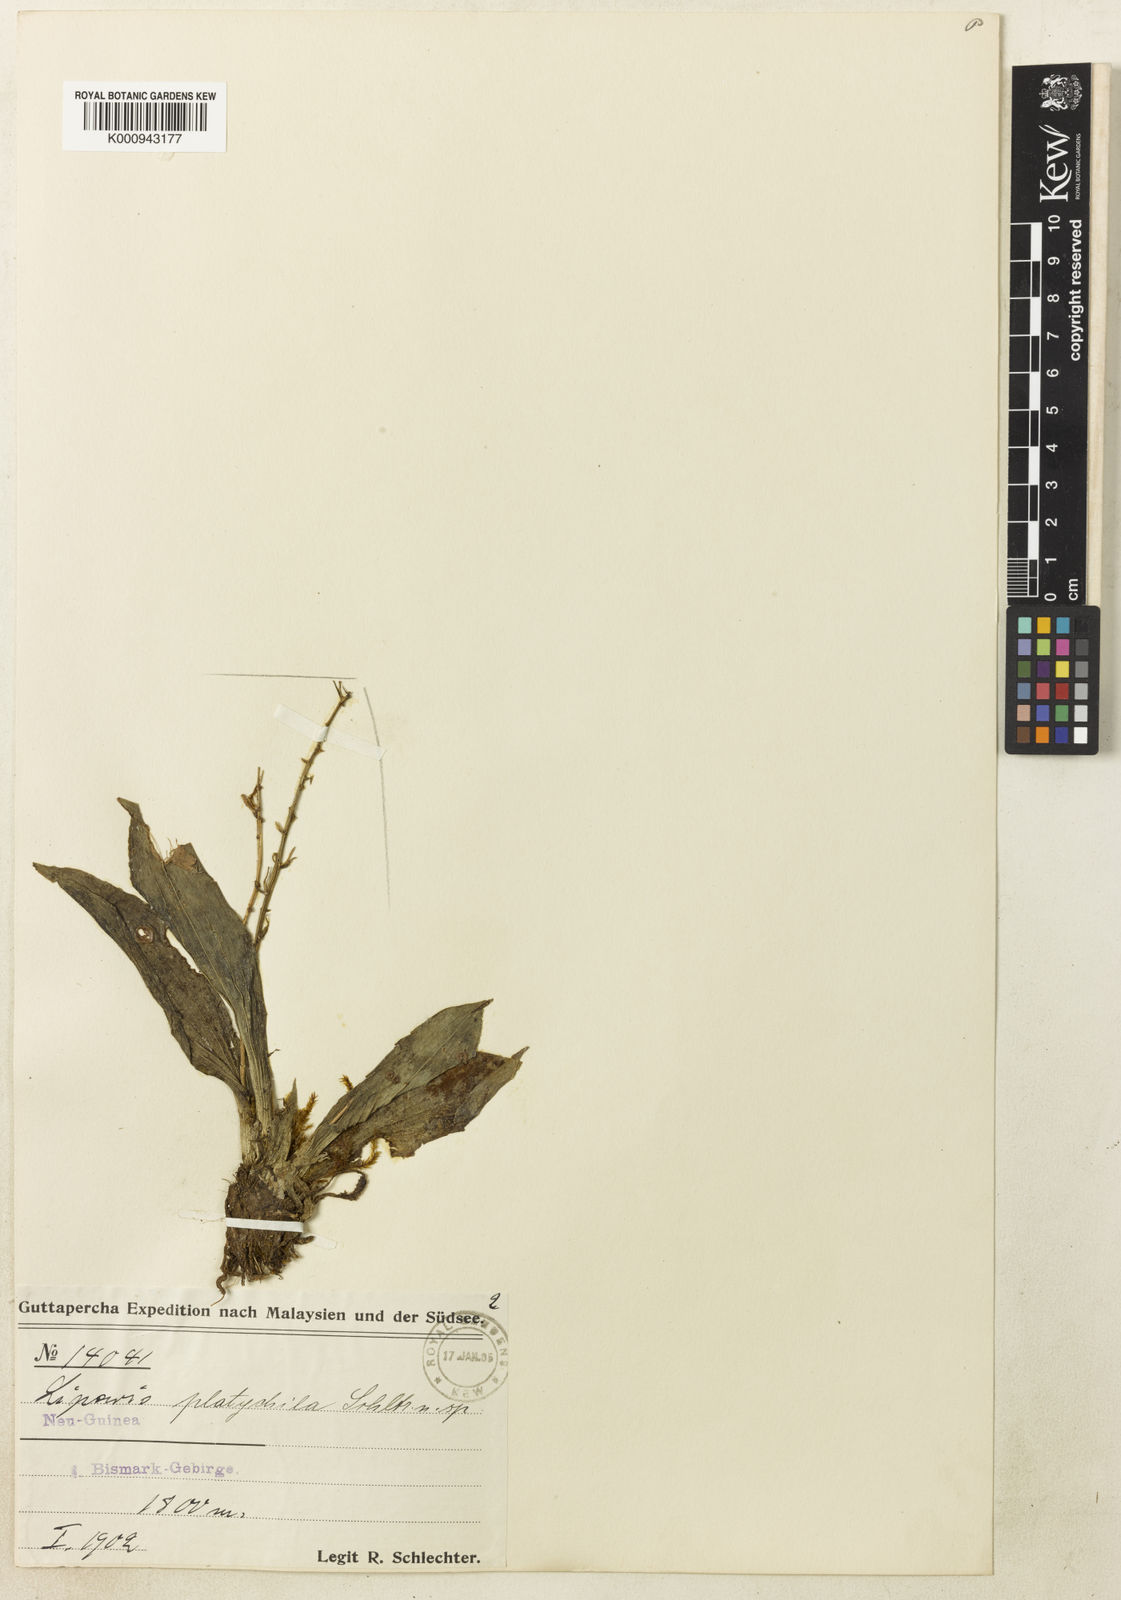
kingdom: Plantae
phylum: Tracheophyta
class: Liliopsida
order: Asparagales
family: Orchidaceae
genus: Liparis
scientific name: Liparis platychila
